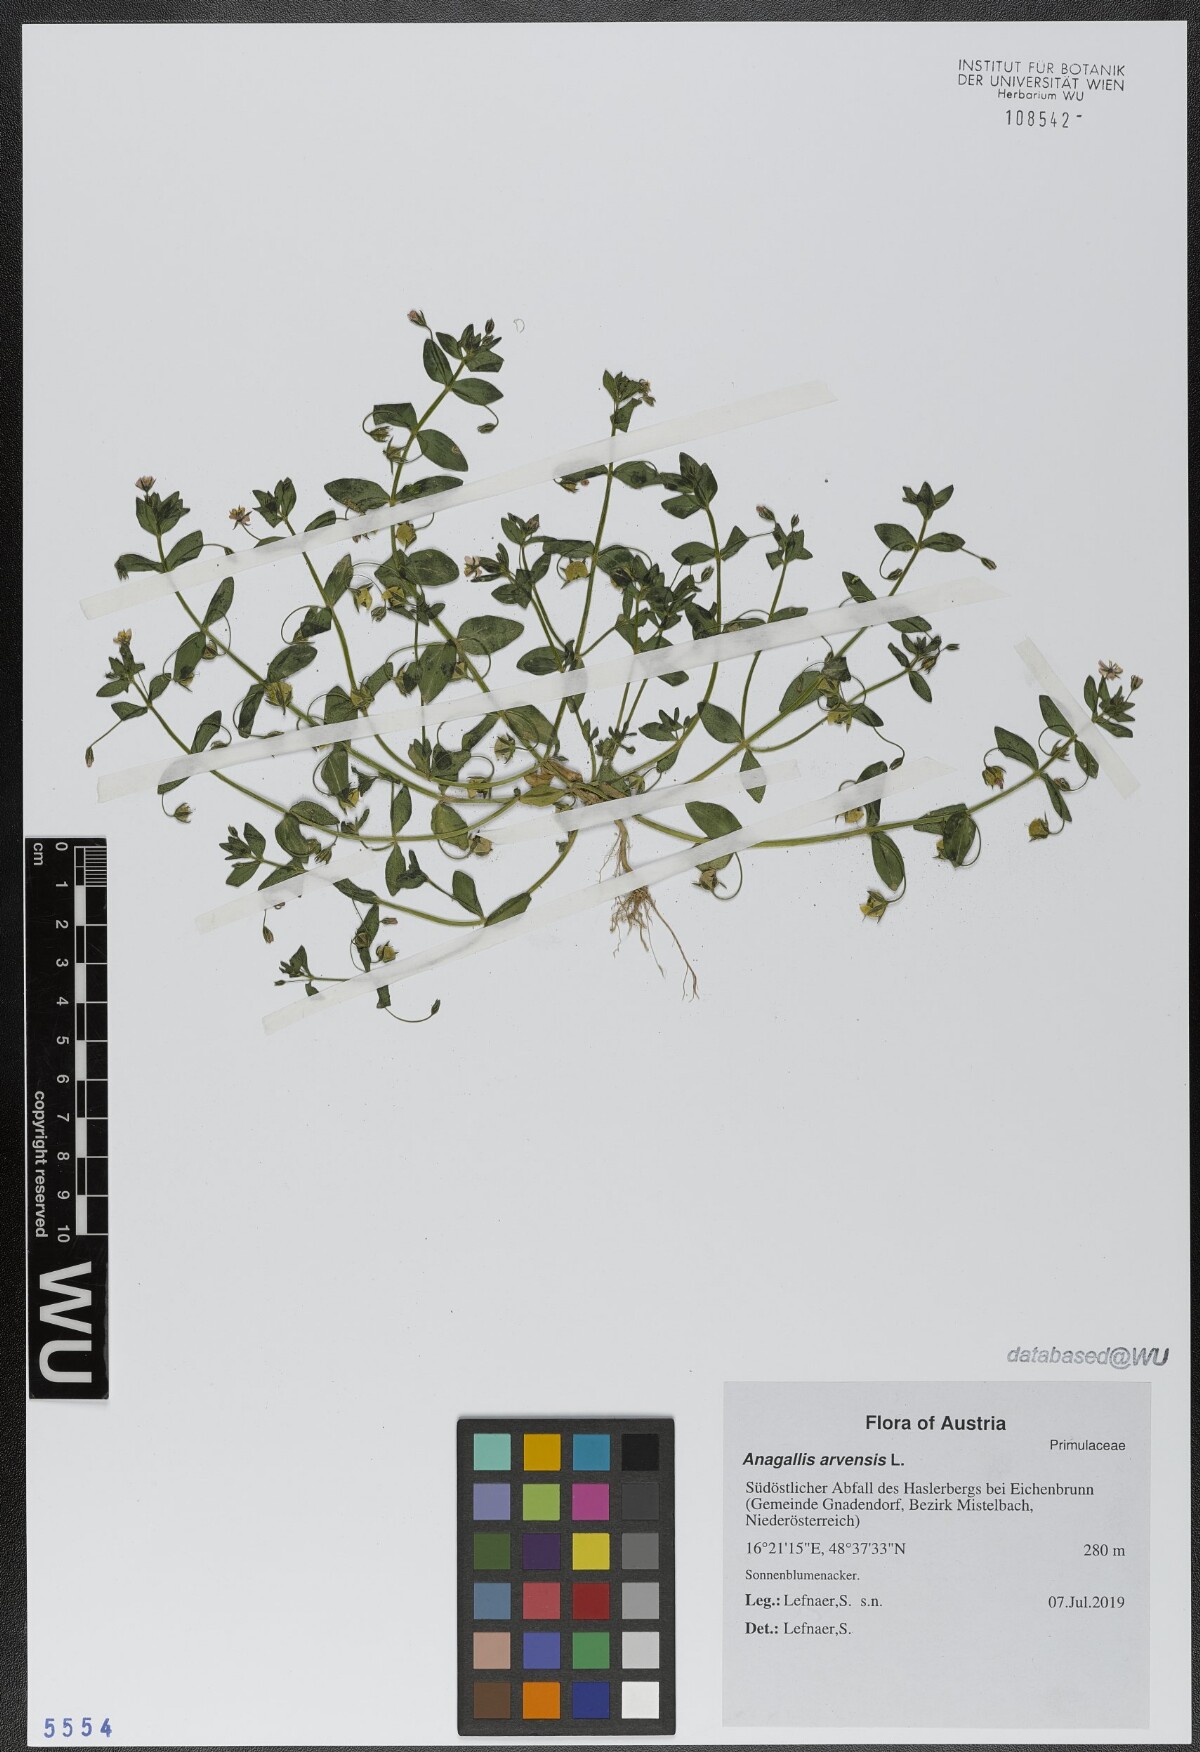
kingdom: Plantae
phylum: Tracheophyta
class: Magnoliopsida
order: Ericales
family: Primulaceae
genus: Lysimachia
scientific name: Lysimachia arvensis
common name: Scarlet pimpernel
